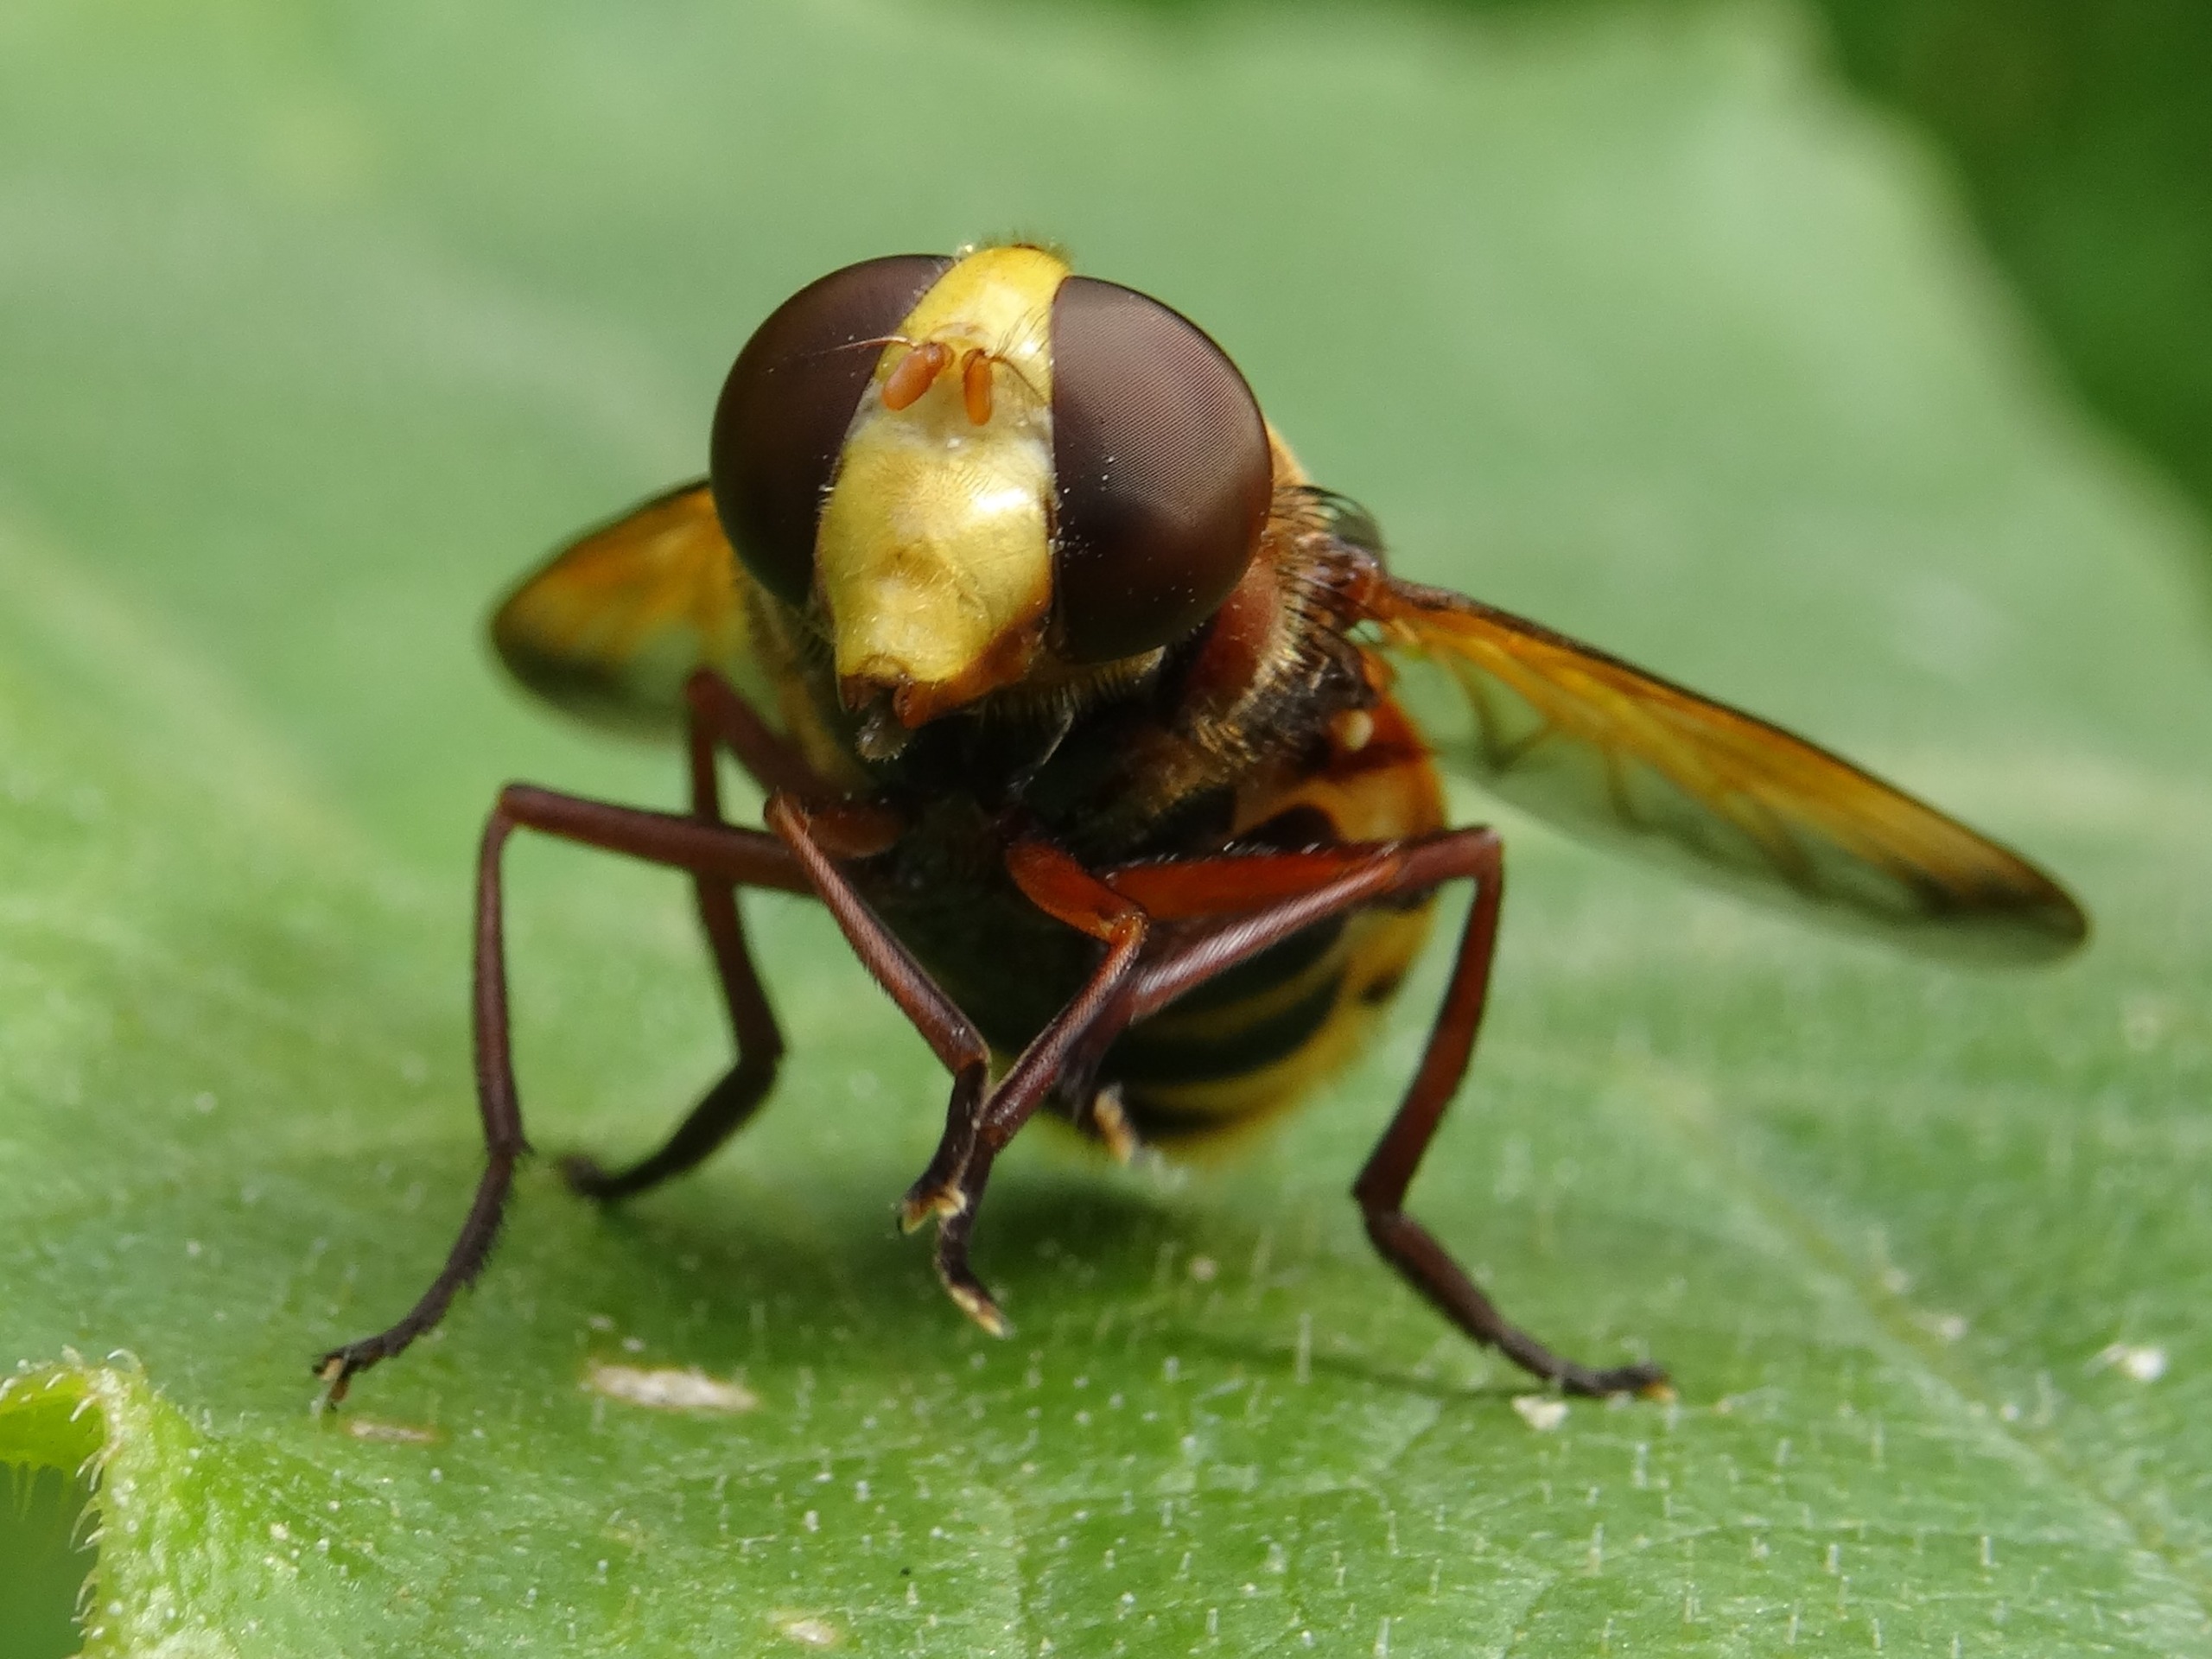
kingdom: Animalia
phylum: Arthropoda
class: Insecta
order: Diptera
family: Syrphidae
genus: Volucella
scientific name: Volucella zonaria
